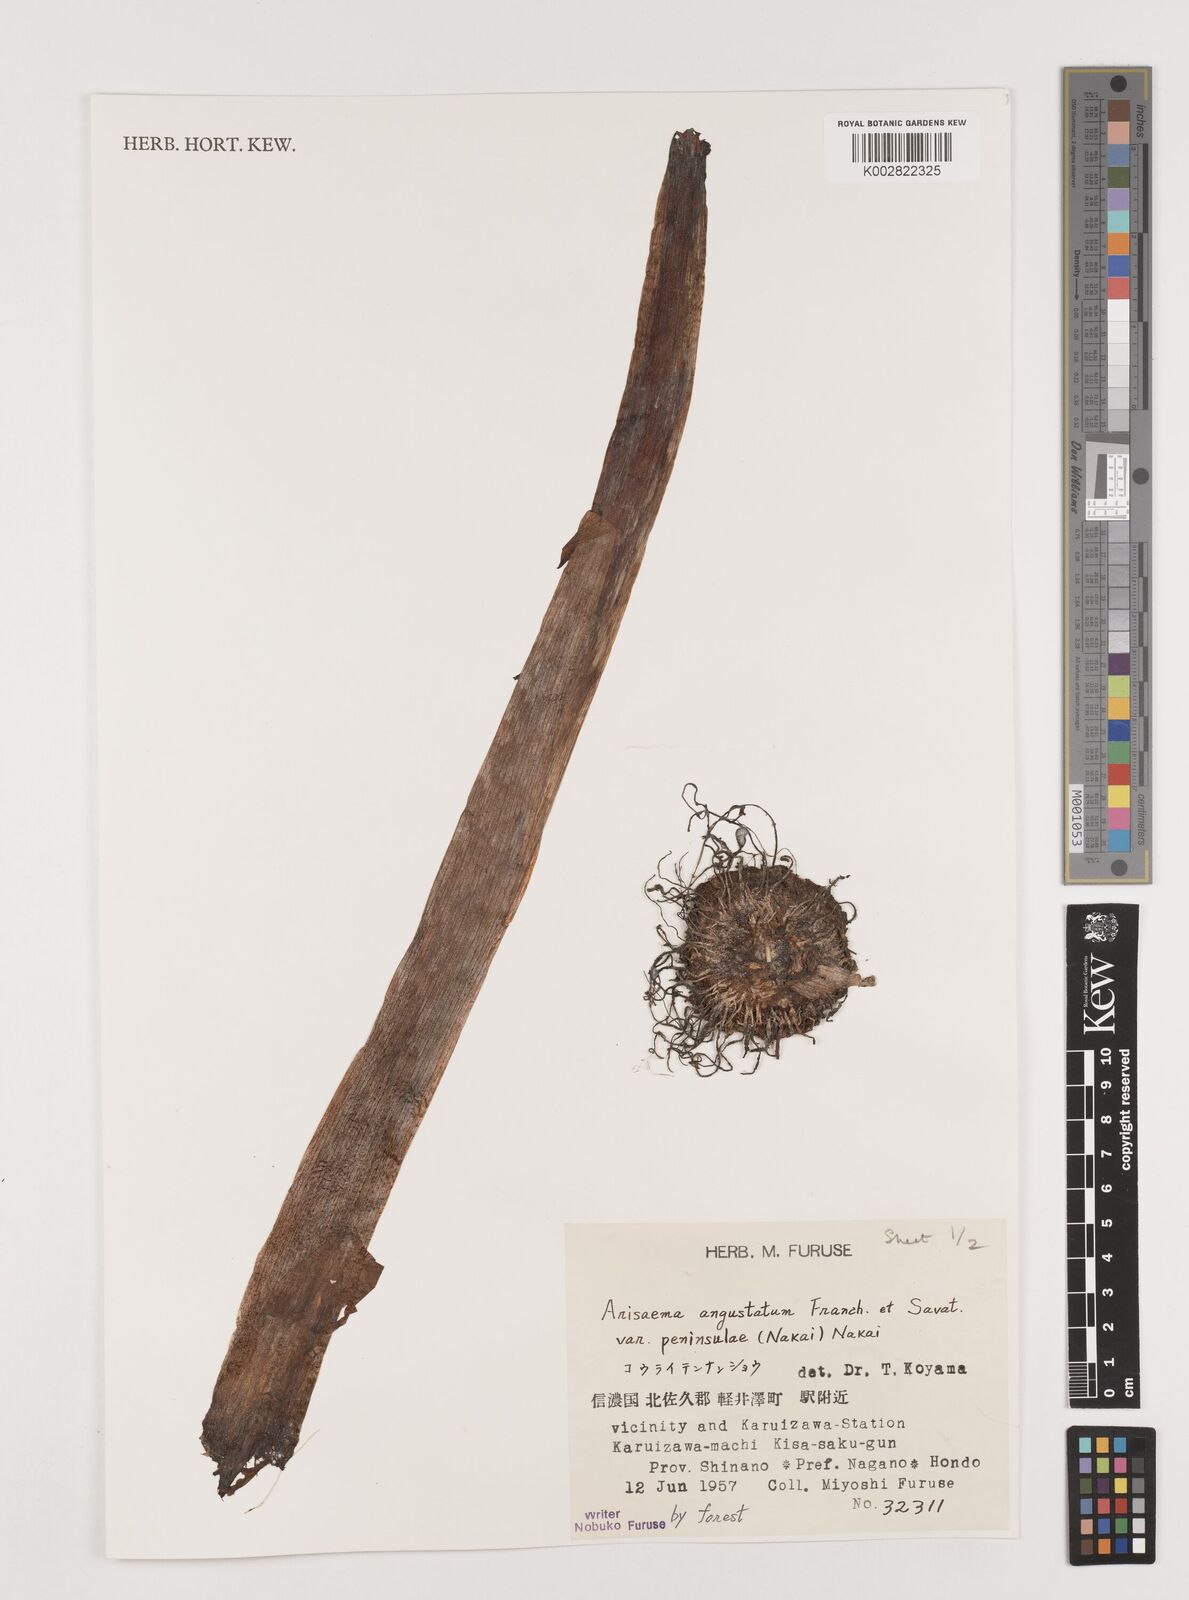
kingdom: Plantae
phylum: Tracheophyta
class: Liliopsida
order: Alismatales
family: Araceae
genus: Arisaema
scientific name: Arisaema angustatum
